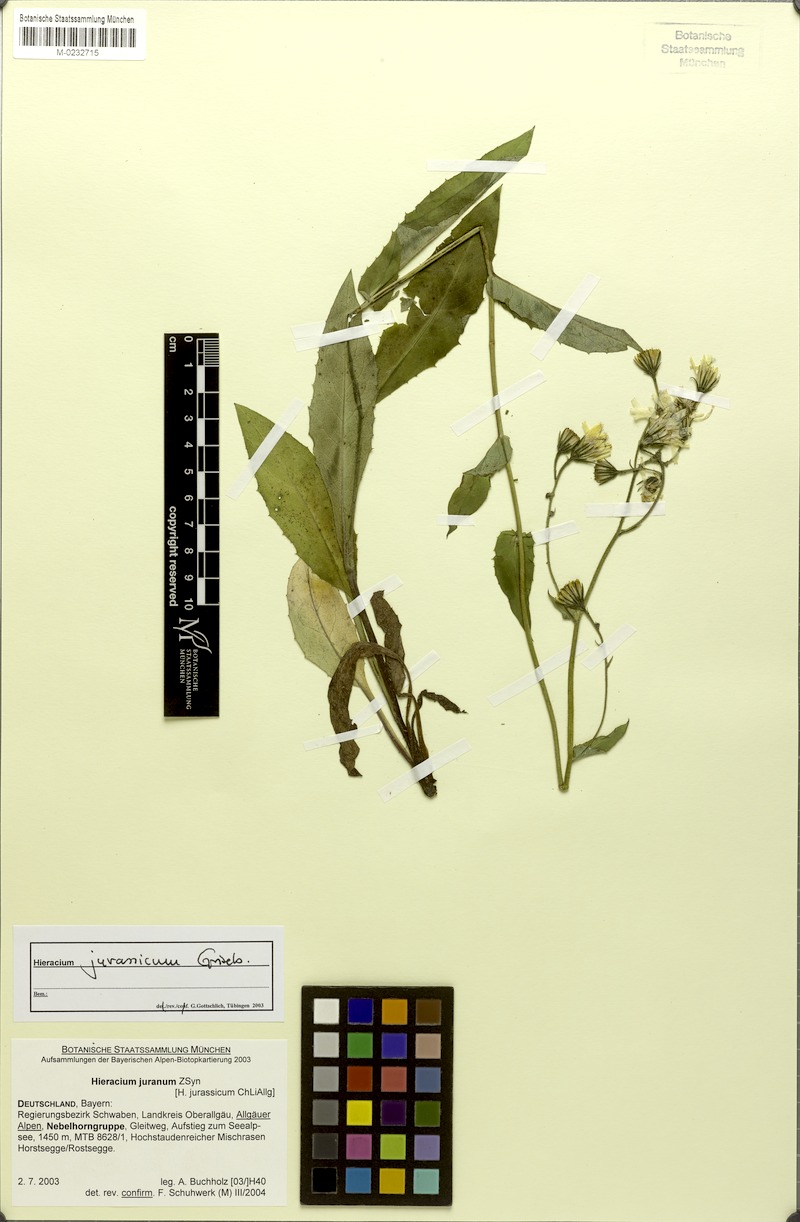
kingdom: Plantae
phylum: Tracheophyta
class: Magnoliopsida
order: Asterales
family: Asteraceae
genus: Hieracium
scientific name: Hieracium jurassicum
